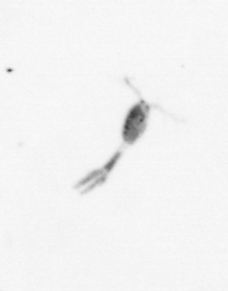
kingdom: Animalia
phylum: Arthropoda
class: Copepoda
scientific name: Copepoda
